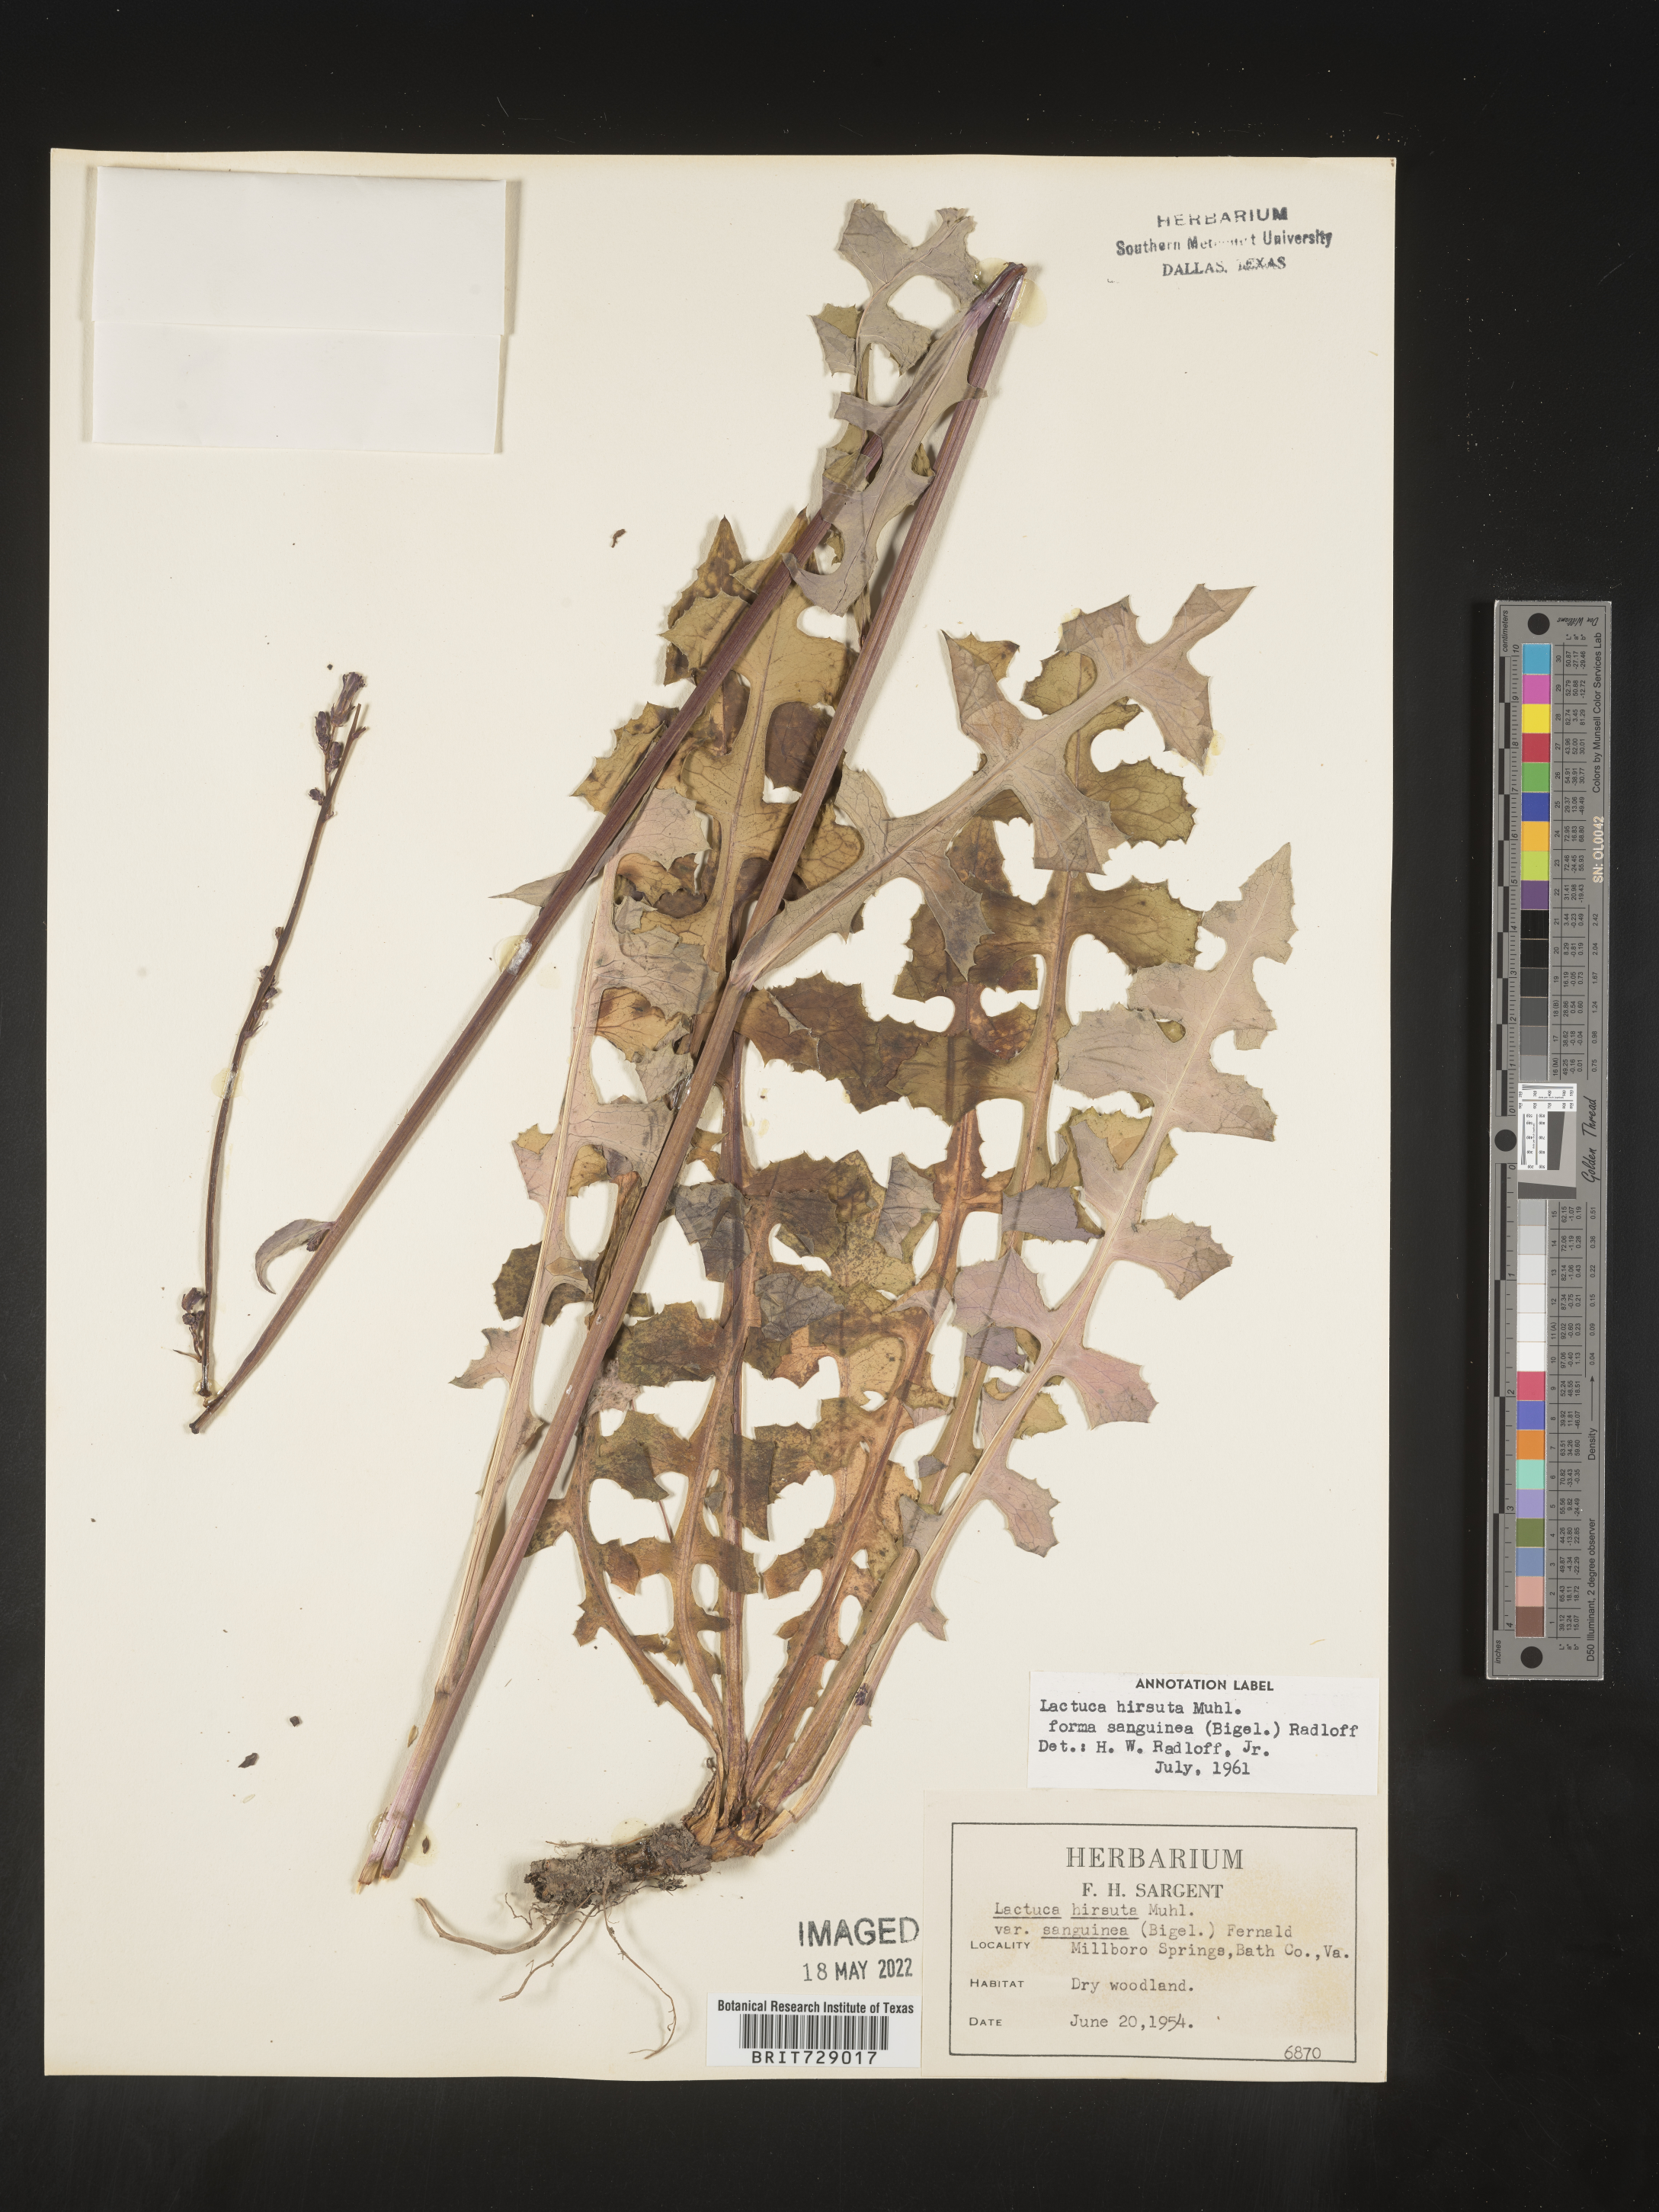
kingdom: Plantae
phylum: Tracheophyta
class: Magnoliopsida
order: Asterales
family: Asteraceae
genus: Lactuca
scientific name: Lactuca hirsuta
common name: Hairy lettuce
